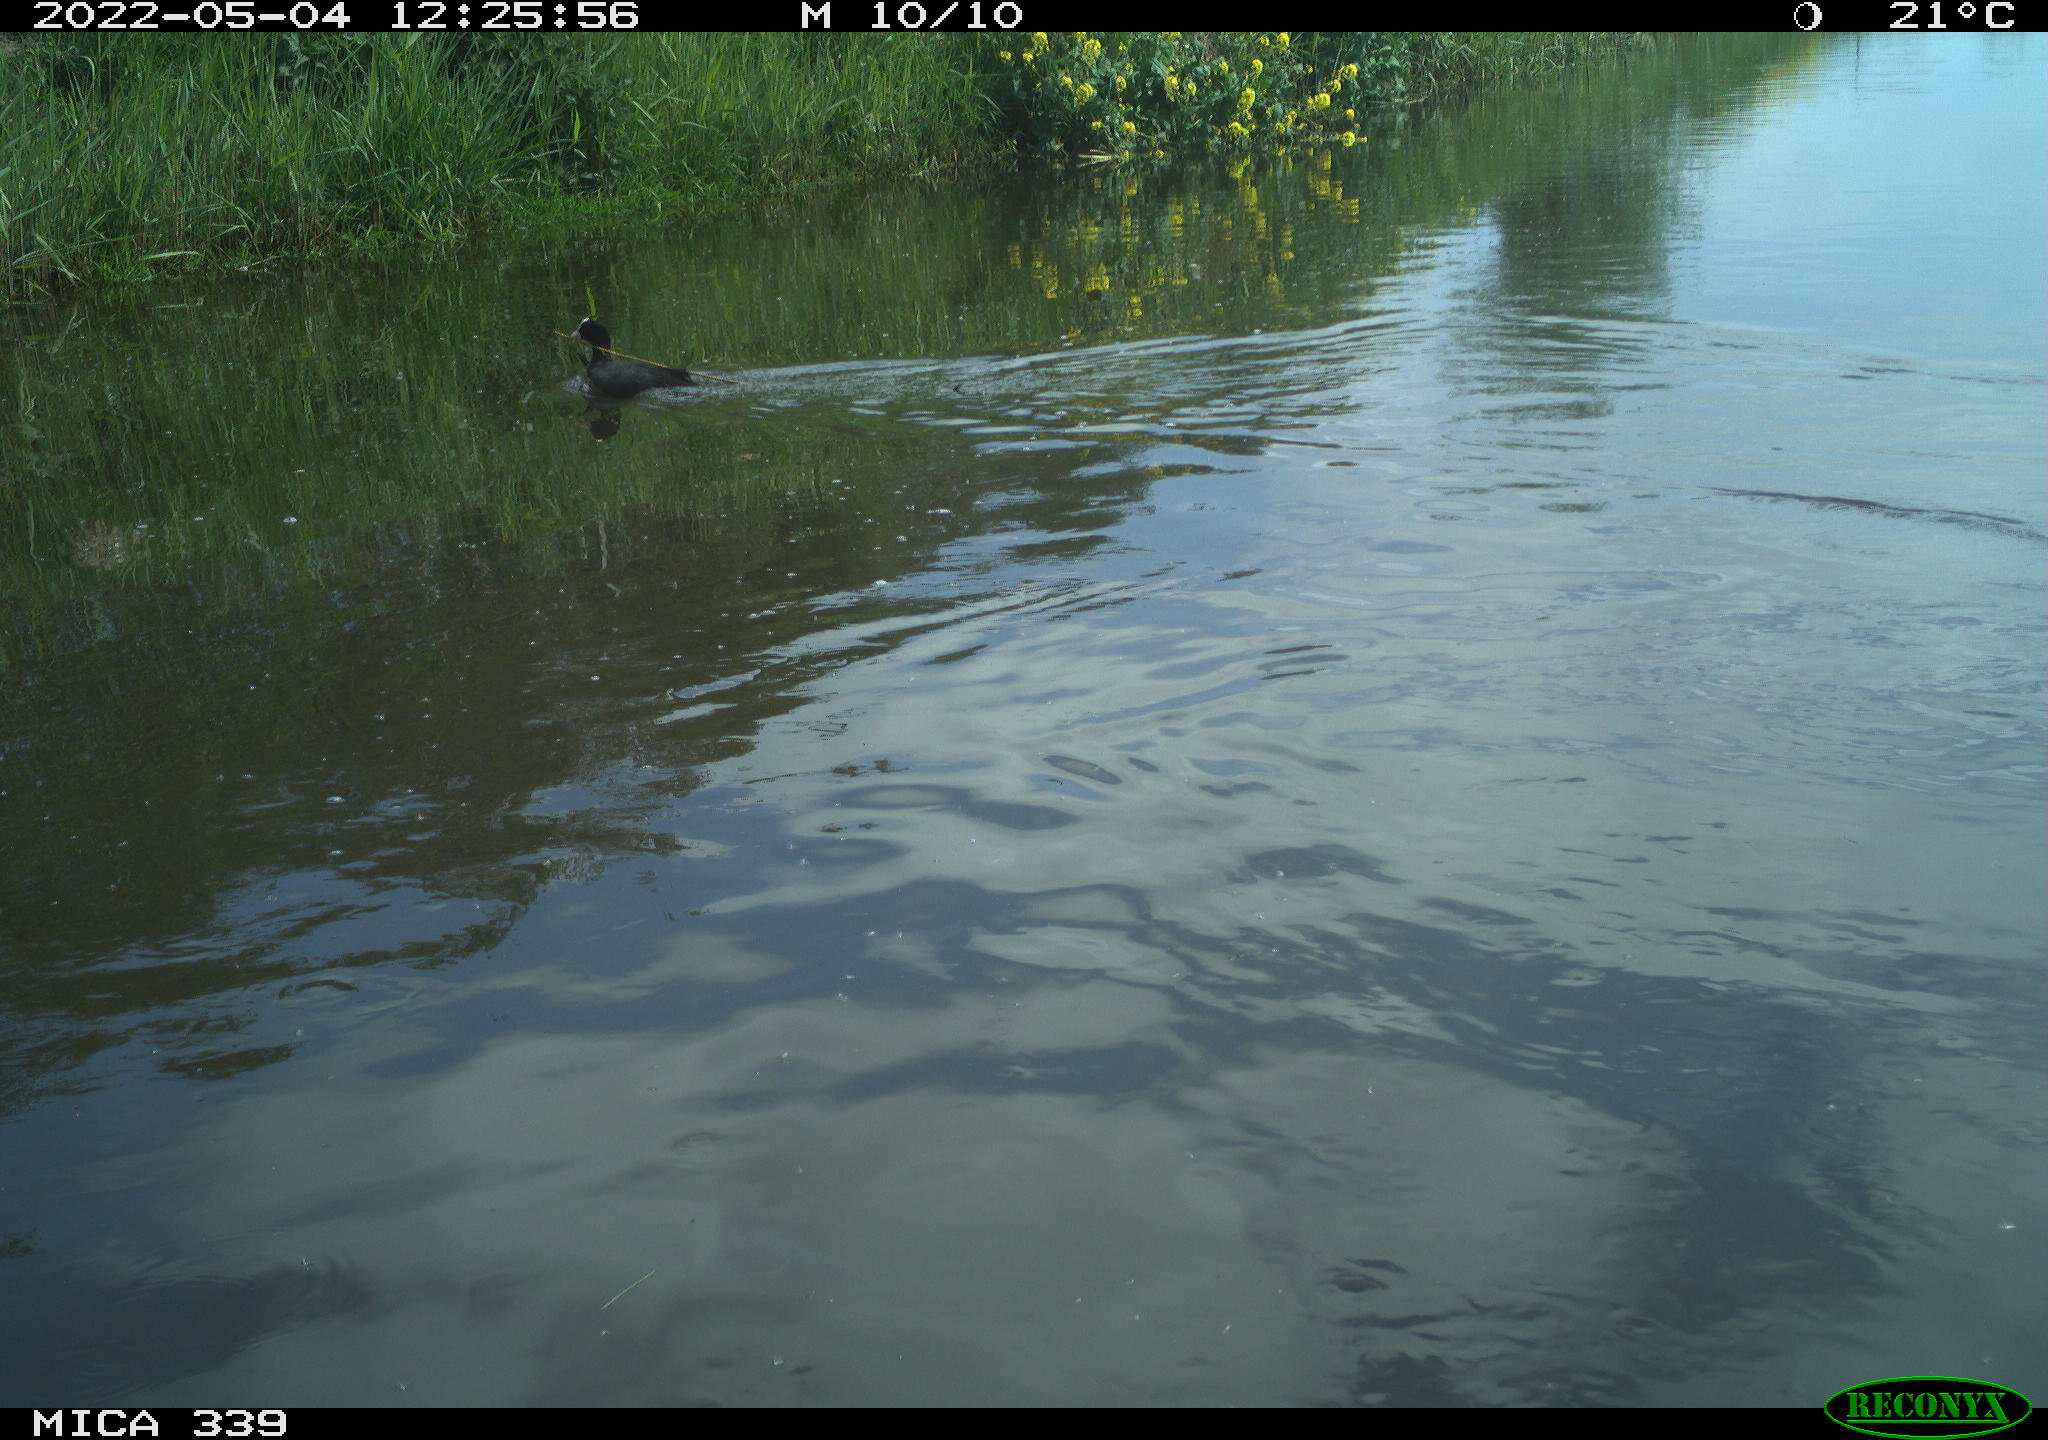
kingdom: Animalia
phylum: Chordata
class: Aves
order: Gruiformes
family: Rallidae
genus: Fulica
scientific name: Fulica atra
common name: Eurasian coot
